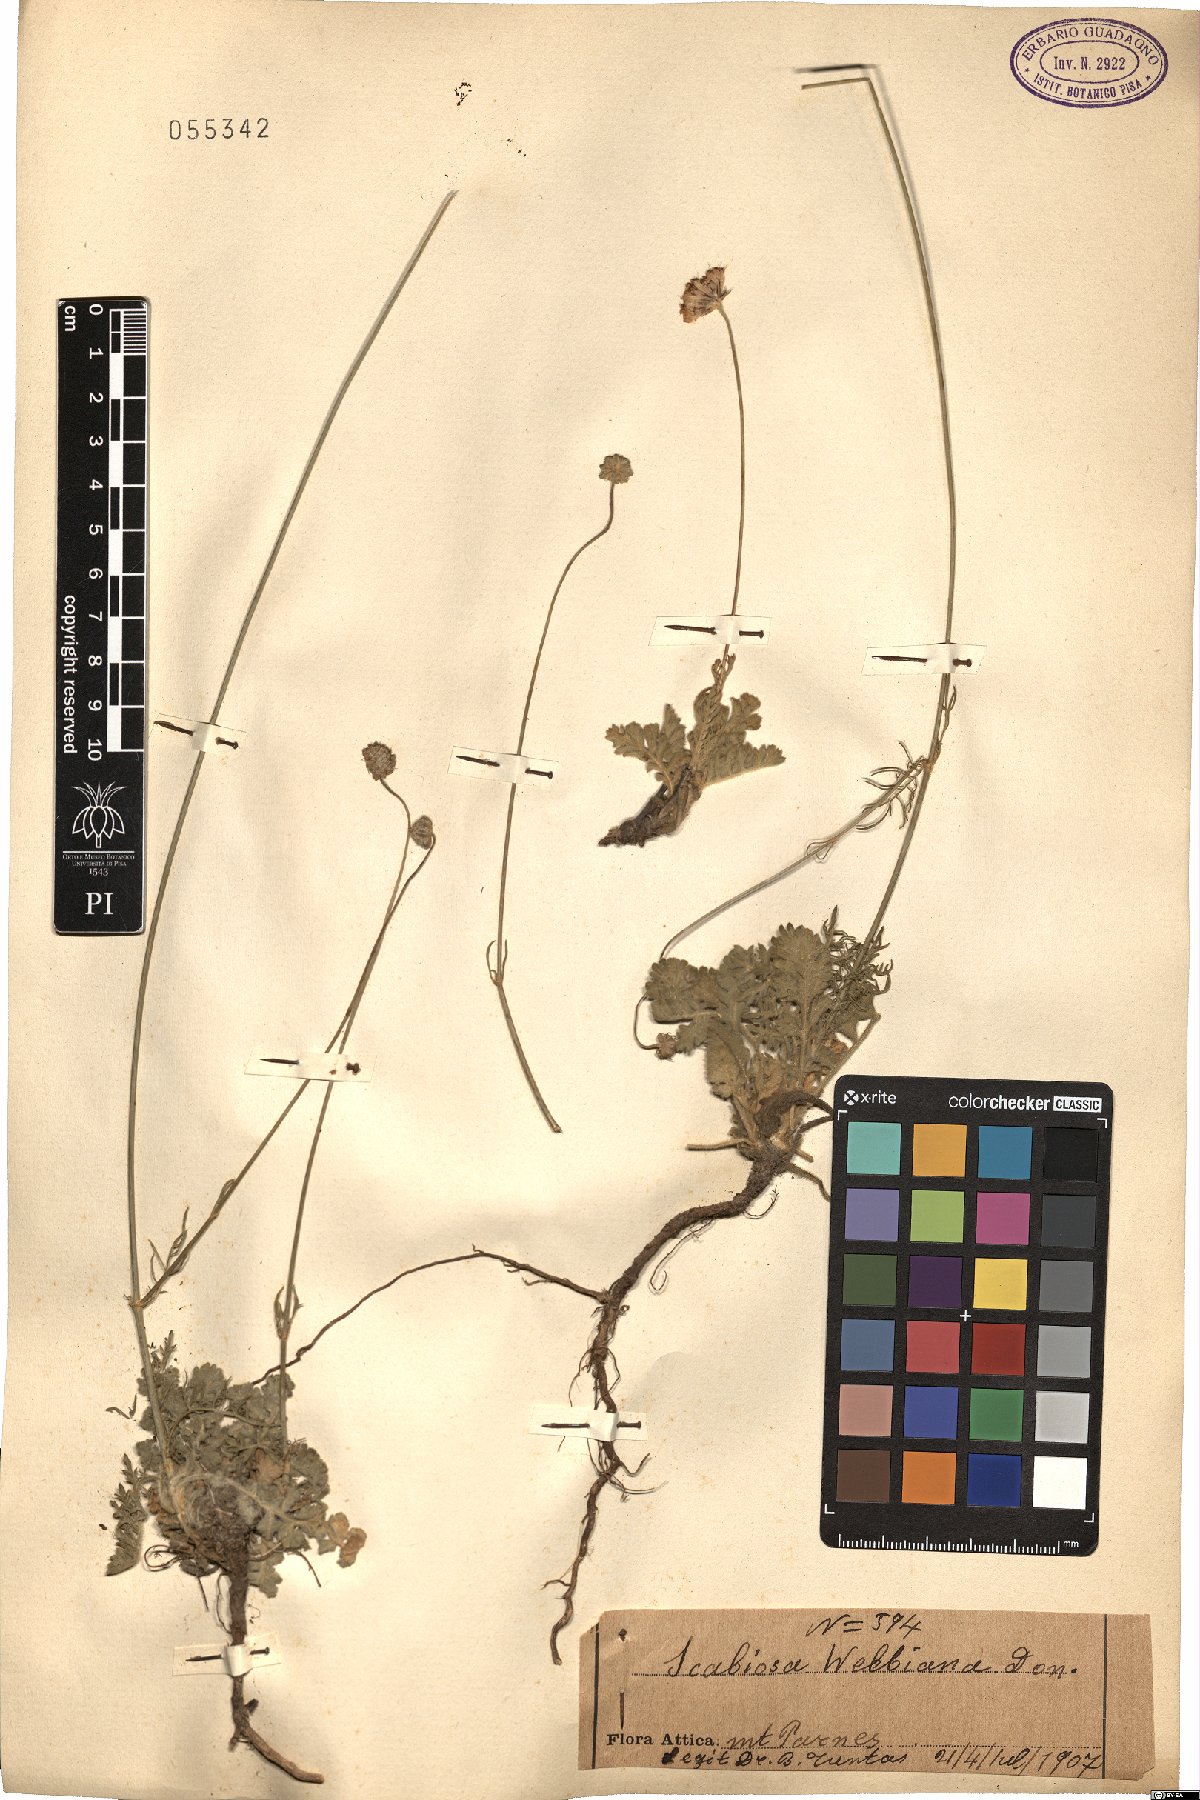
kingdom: Plantae
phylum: Tracheophyta
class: Magnoliopsida
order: Dipsacales
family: Caprifoliaceae
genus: Scabiosa
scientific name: Scabiosa webbiana
